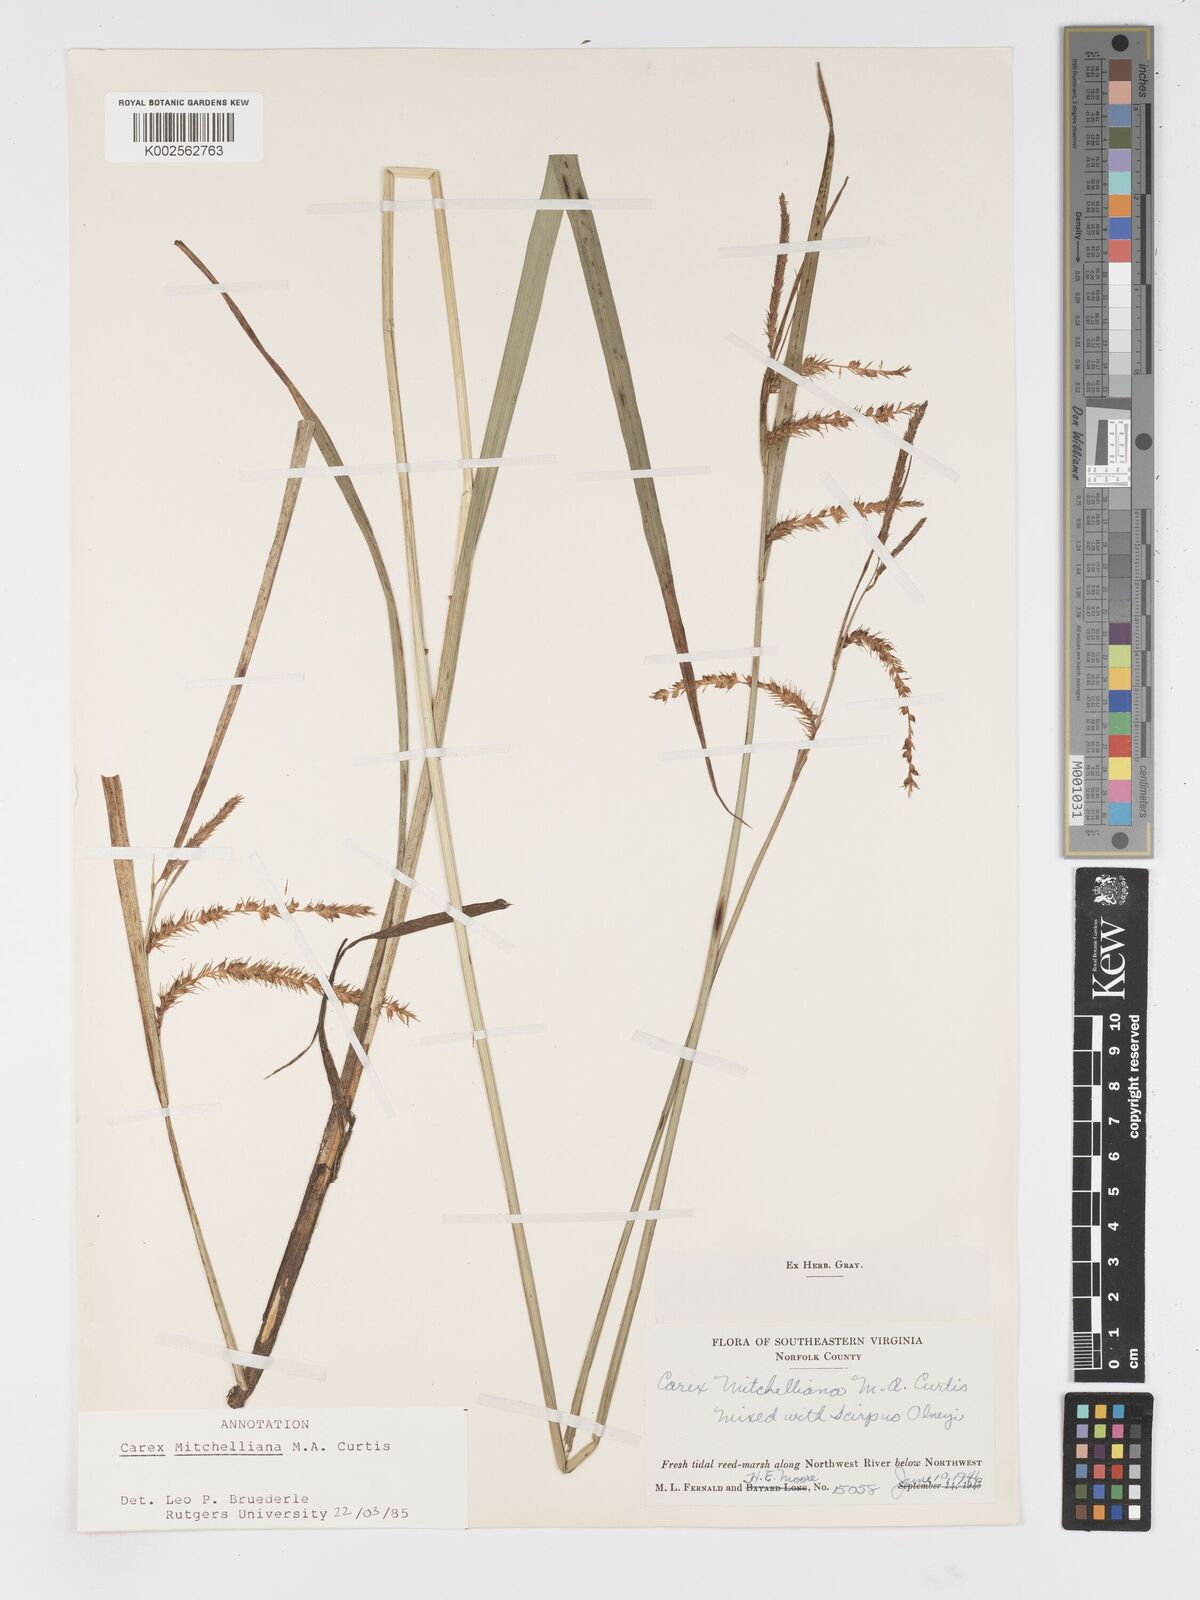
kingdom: Plantae
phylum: Tracheophyta
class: Liliopsida
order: Poales
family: Cyperaceae
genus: Carex
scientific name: Carex mitchelliana
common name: Mitchell's sedge
